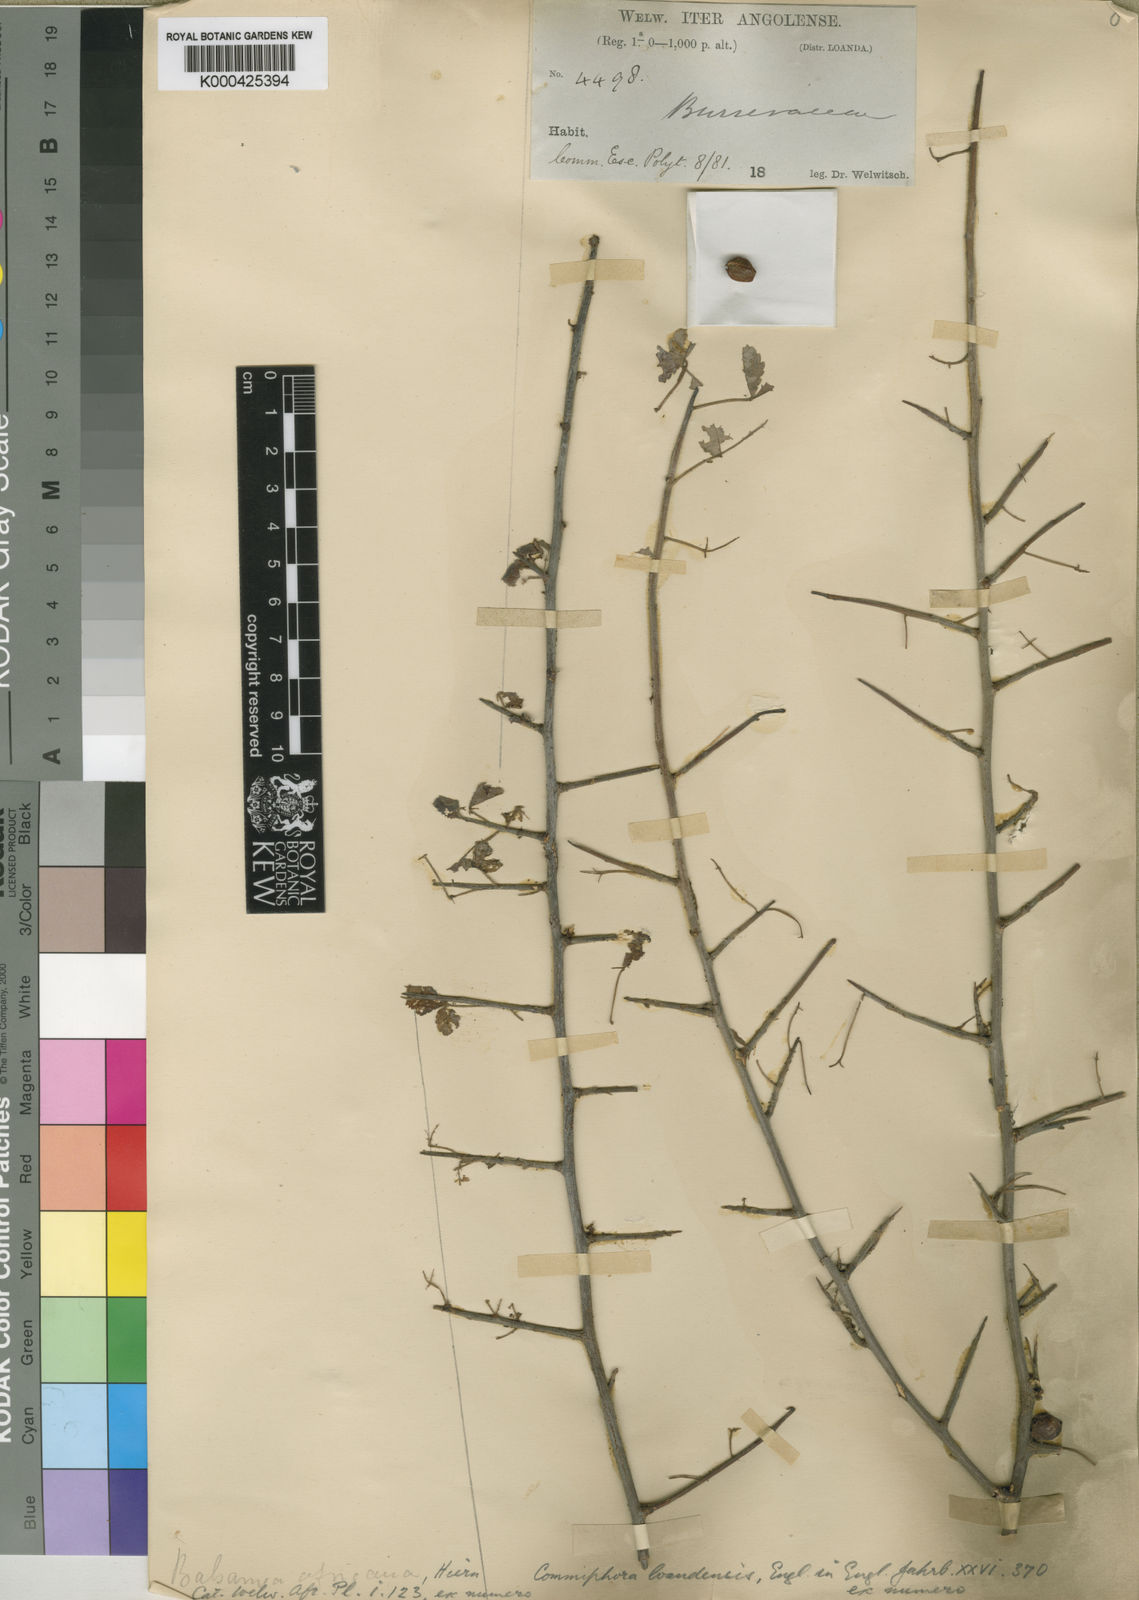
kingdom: Plantae
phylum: Tracheophyta
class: Magnoliopsida
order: Sapindales
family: Burseraceae
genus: Commiphora
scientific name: Commiphora africana
